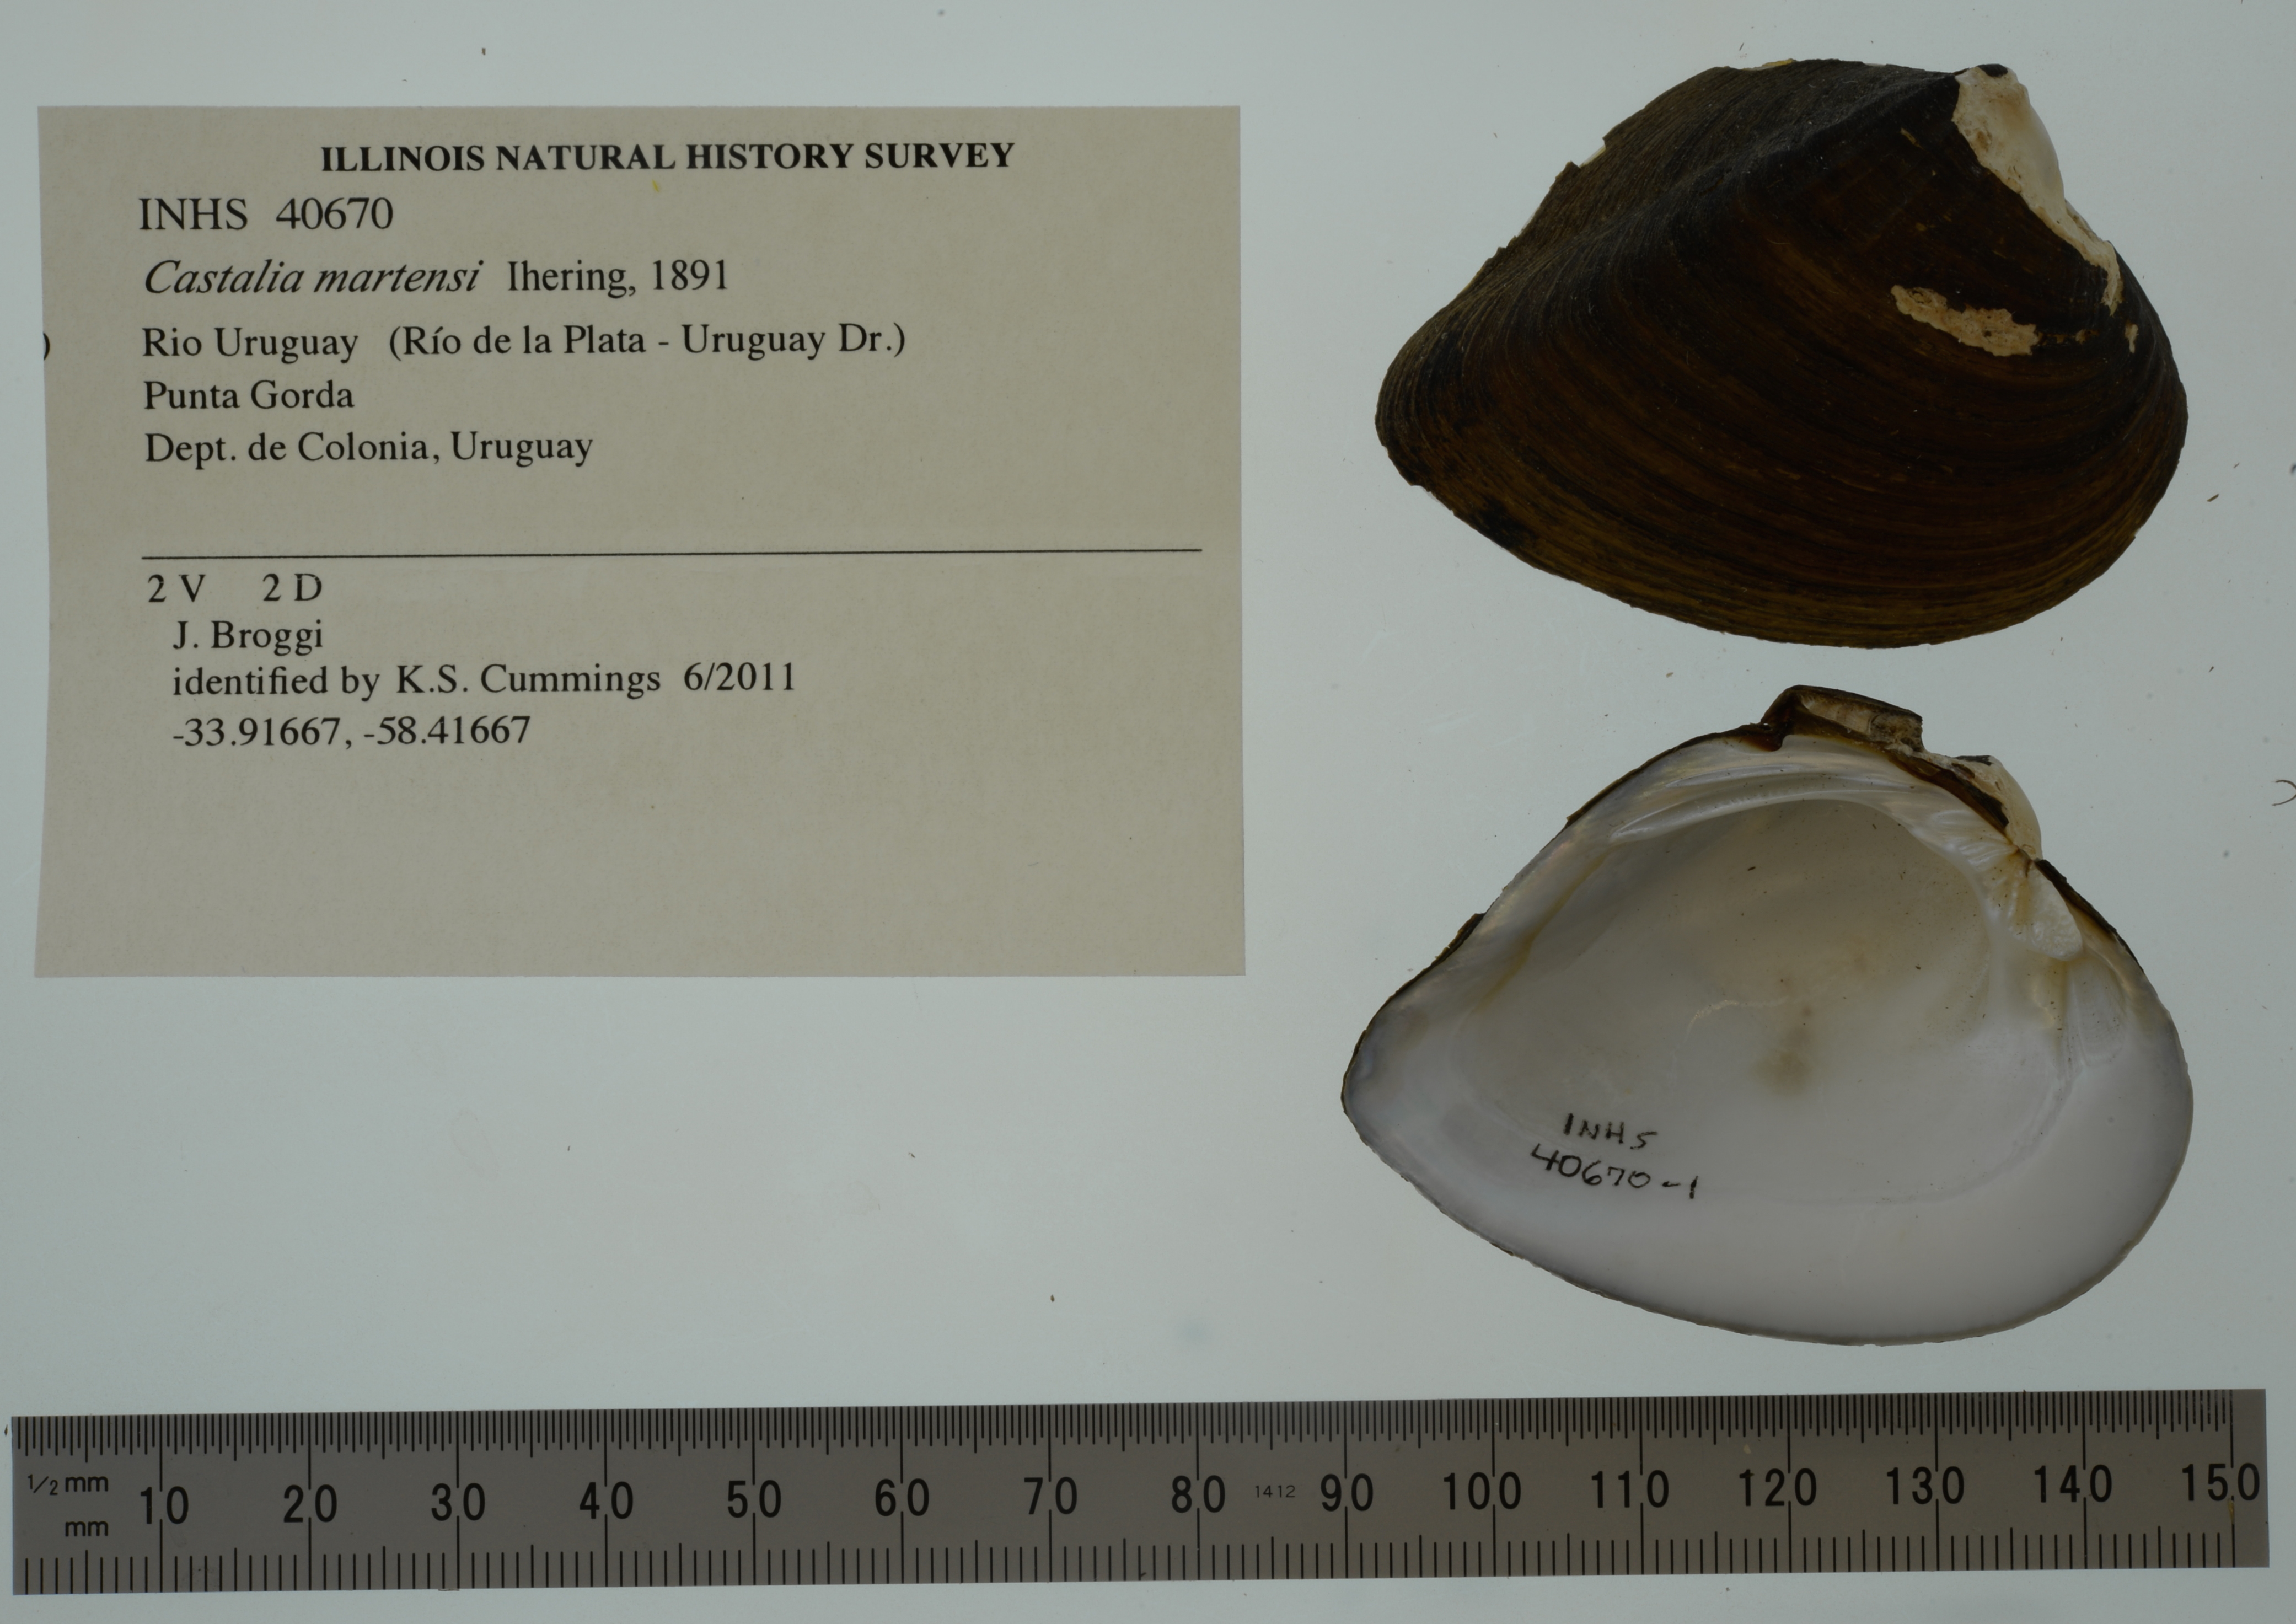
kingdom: Animalia
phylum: Mollusca
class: Bivalvia
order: Unionida
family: Hyriidae
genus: Castalia
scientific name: Castalia martensi
